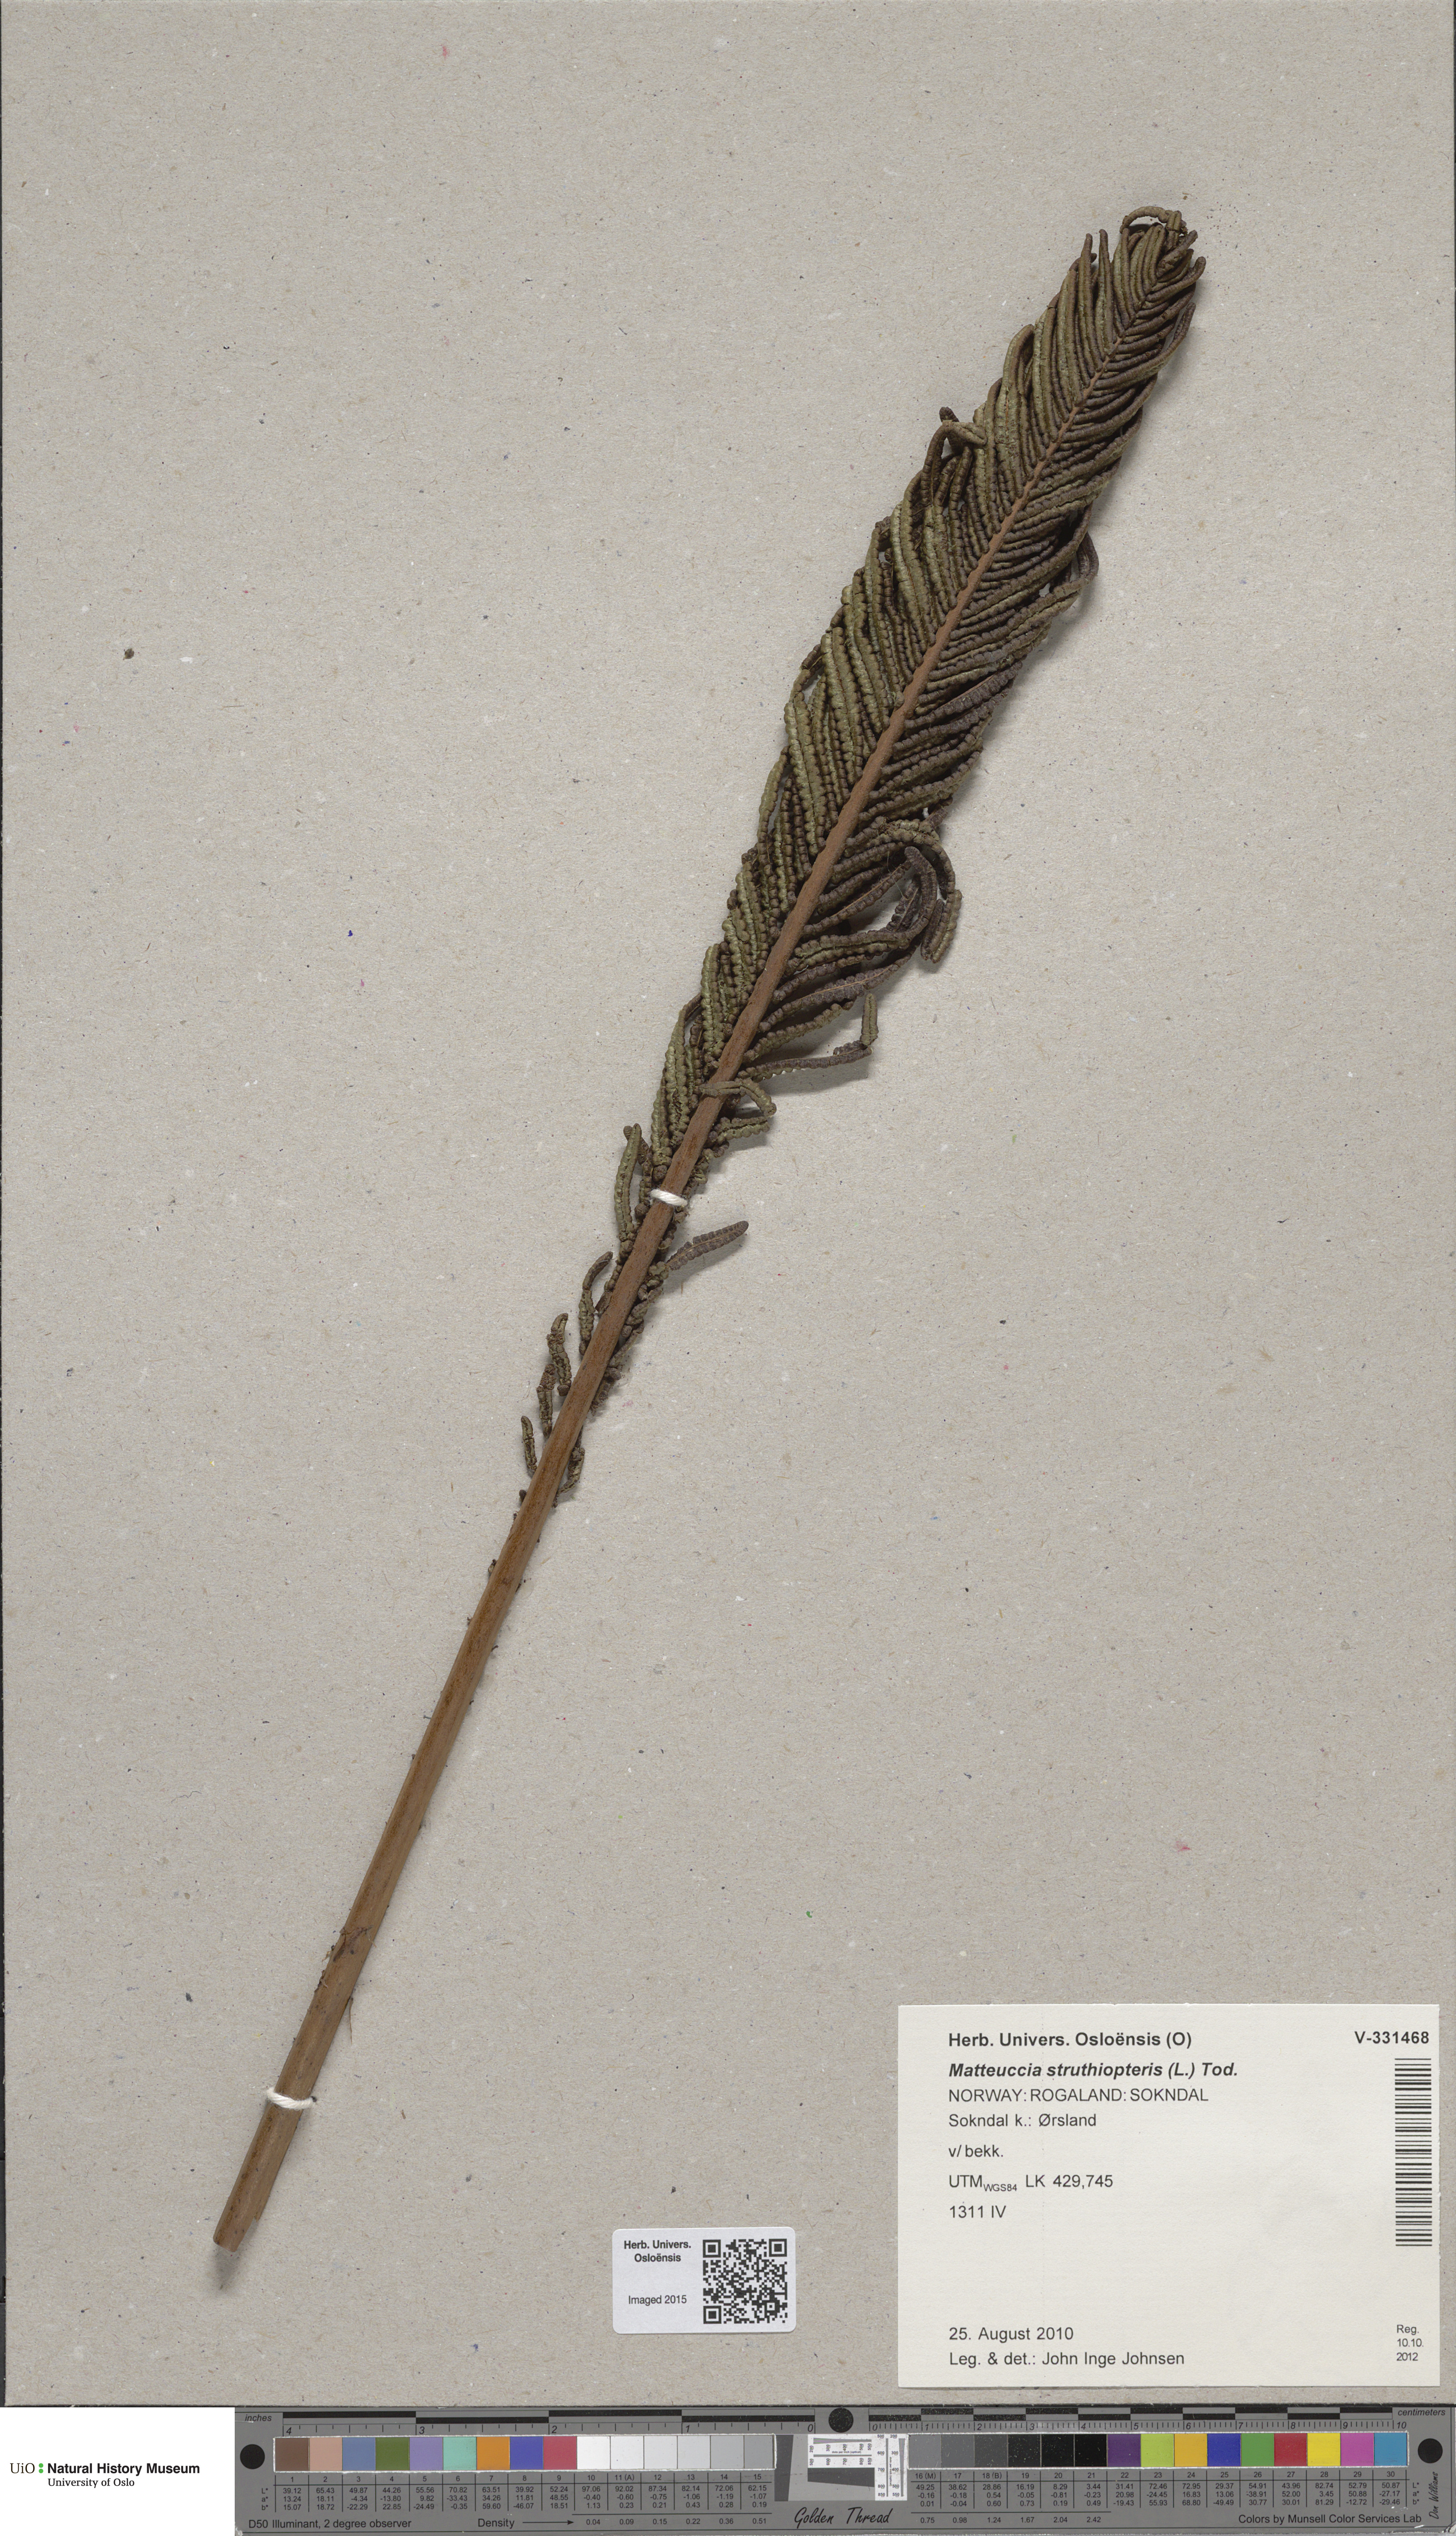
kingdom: Plantae
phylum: Tracheophyta
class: Polypodiopsida
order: Polypodiales
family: Onocleaceae
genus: Matteuccia
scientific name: Matteuccia struthiopteris
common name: Ostrich fern
